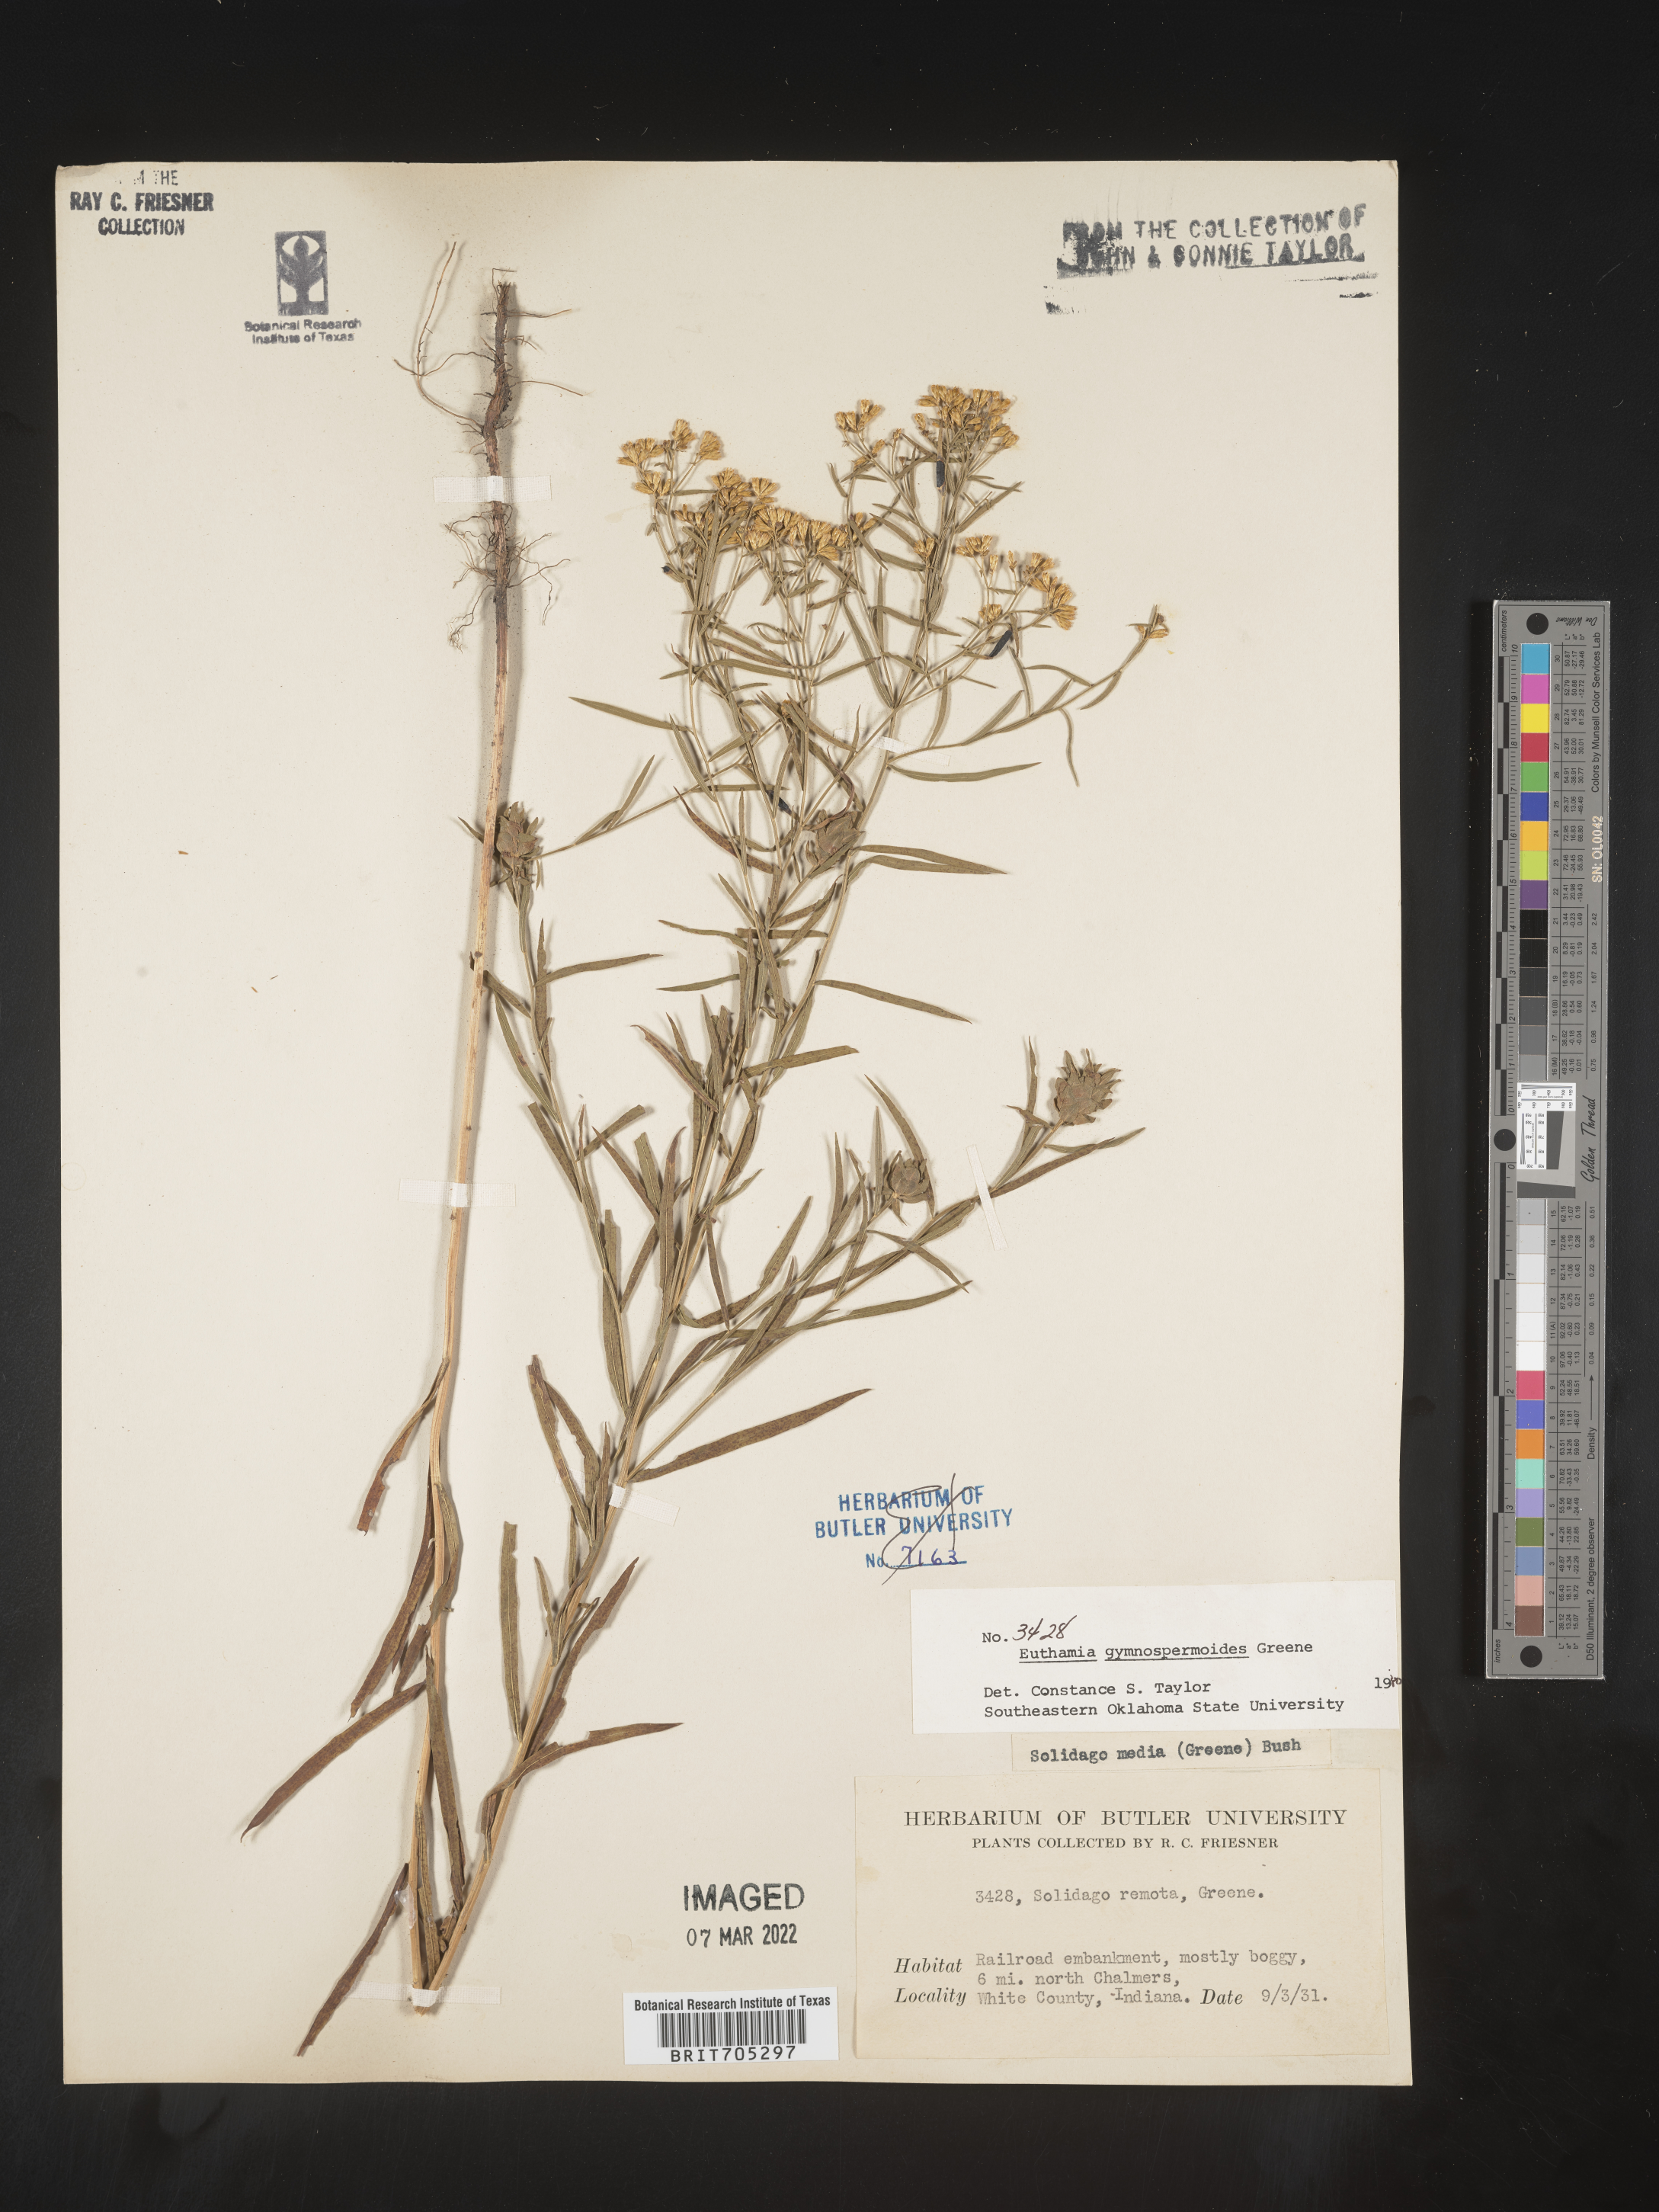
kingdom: Plantae
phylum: Tracheophyta
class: Magnoliopsida
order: Asterales
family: Asteraceae
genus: Euthamia
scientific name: Euthamia gymnospermoides
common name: Great plains goldentop
